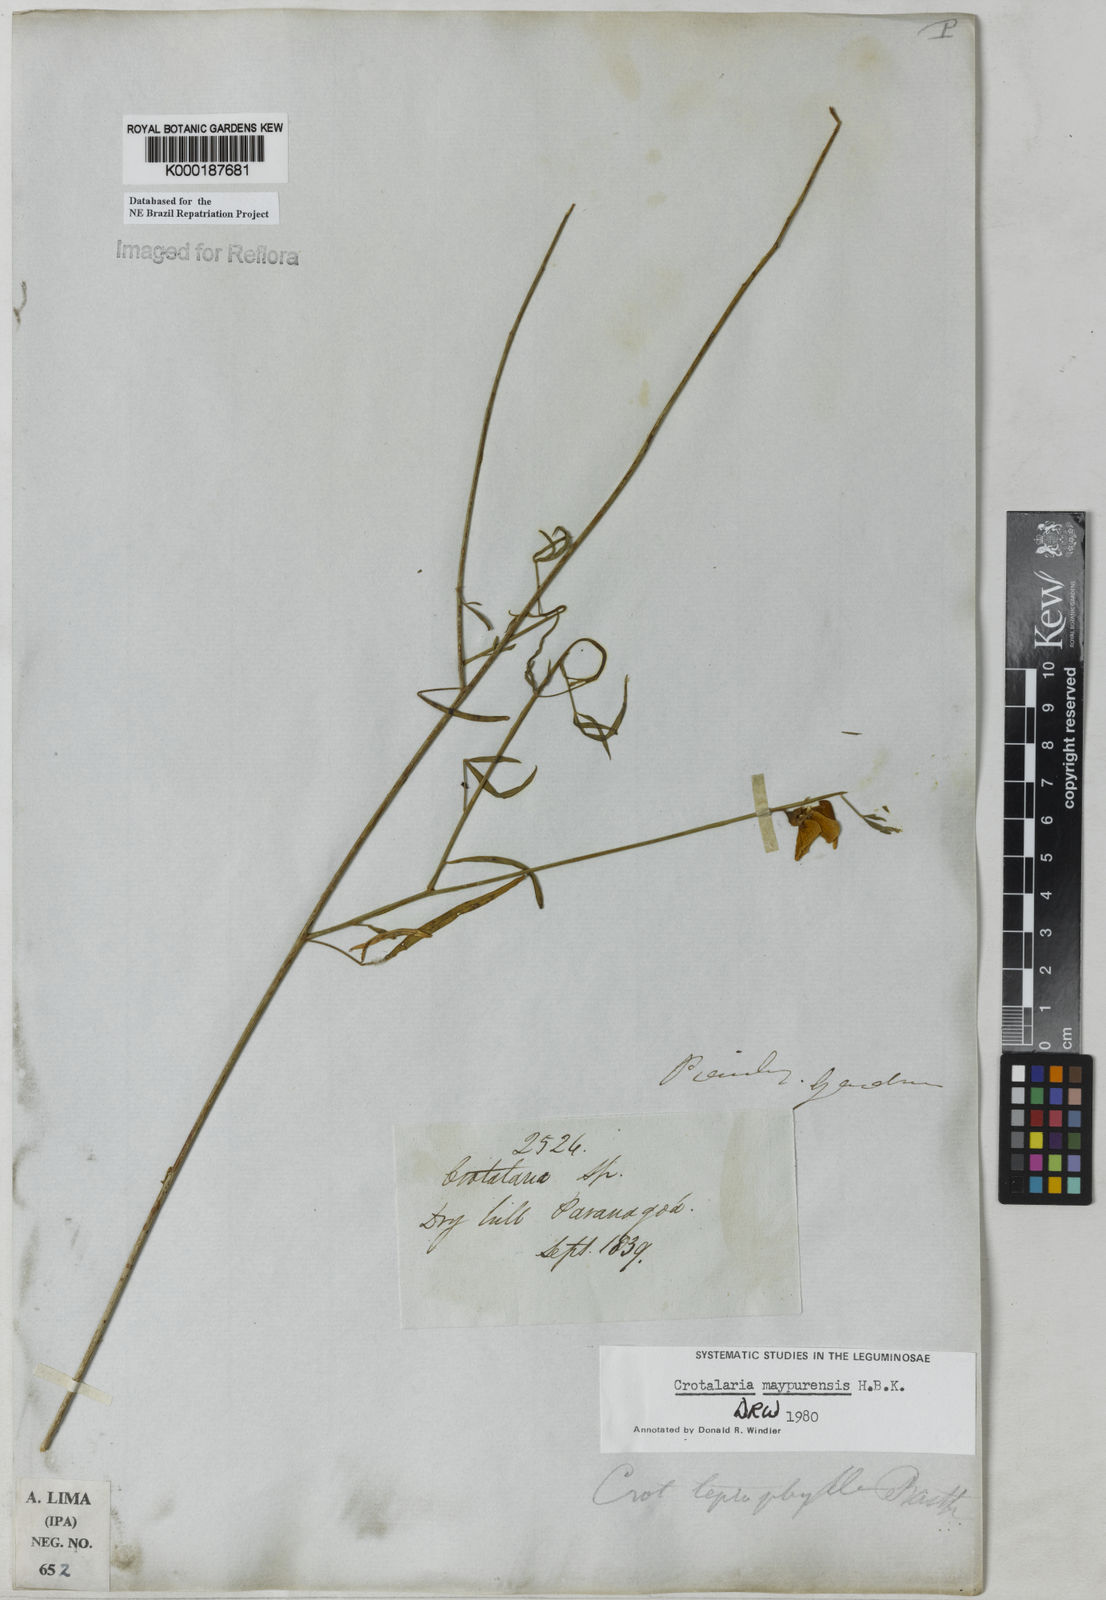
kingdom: Plantae
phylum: Tracheophyta
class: Magnoliopsida
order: Fabales
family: Fabaceae
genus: Crotalaria
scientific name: Crotalaria maypurensis
